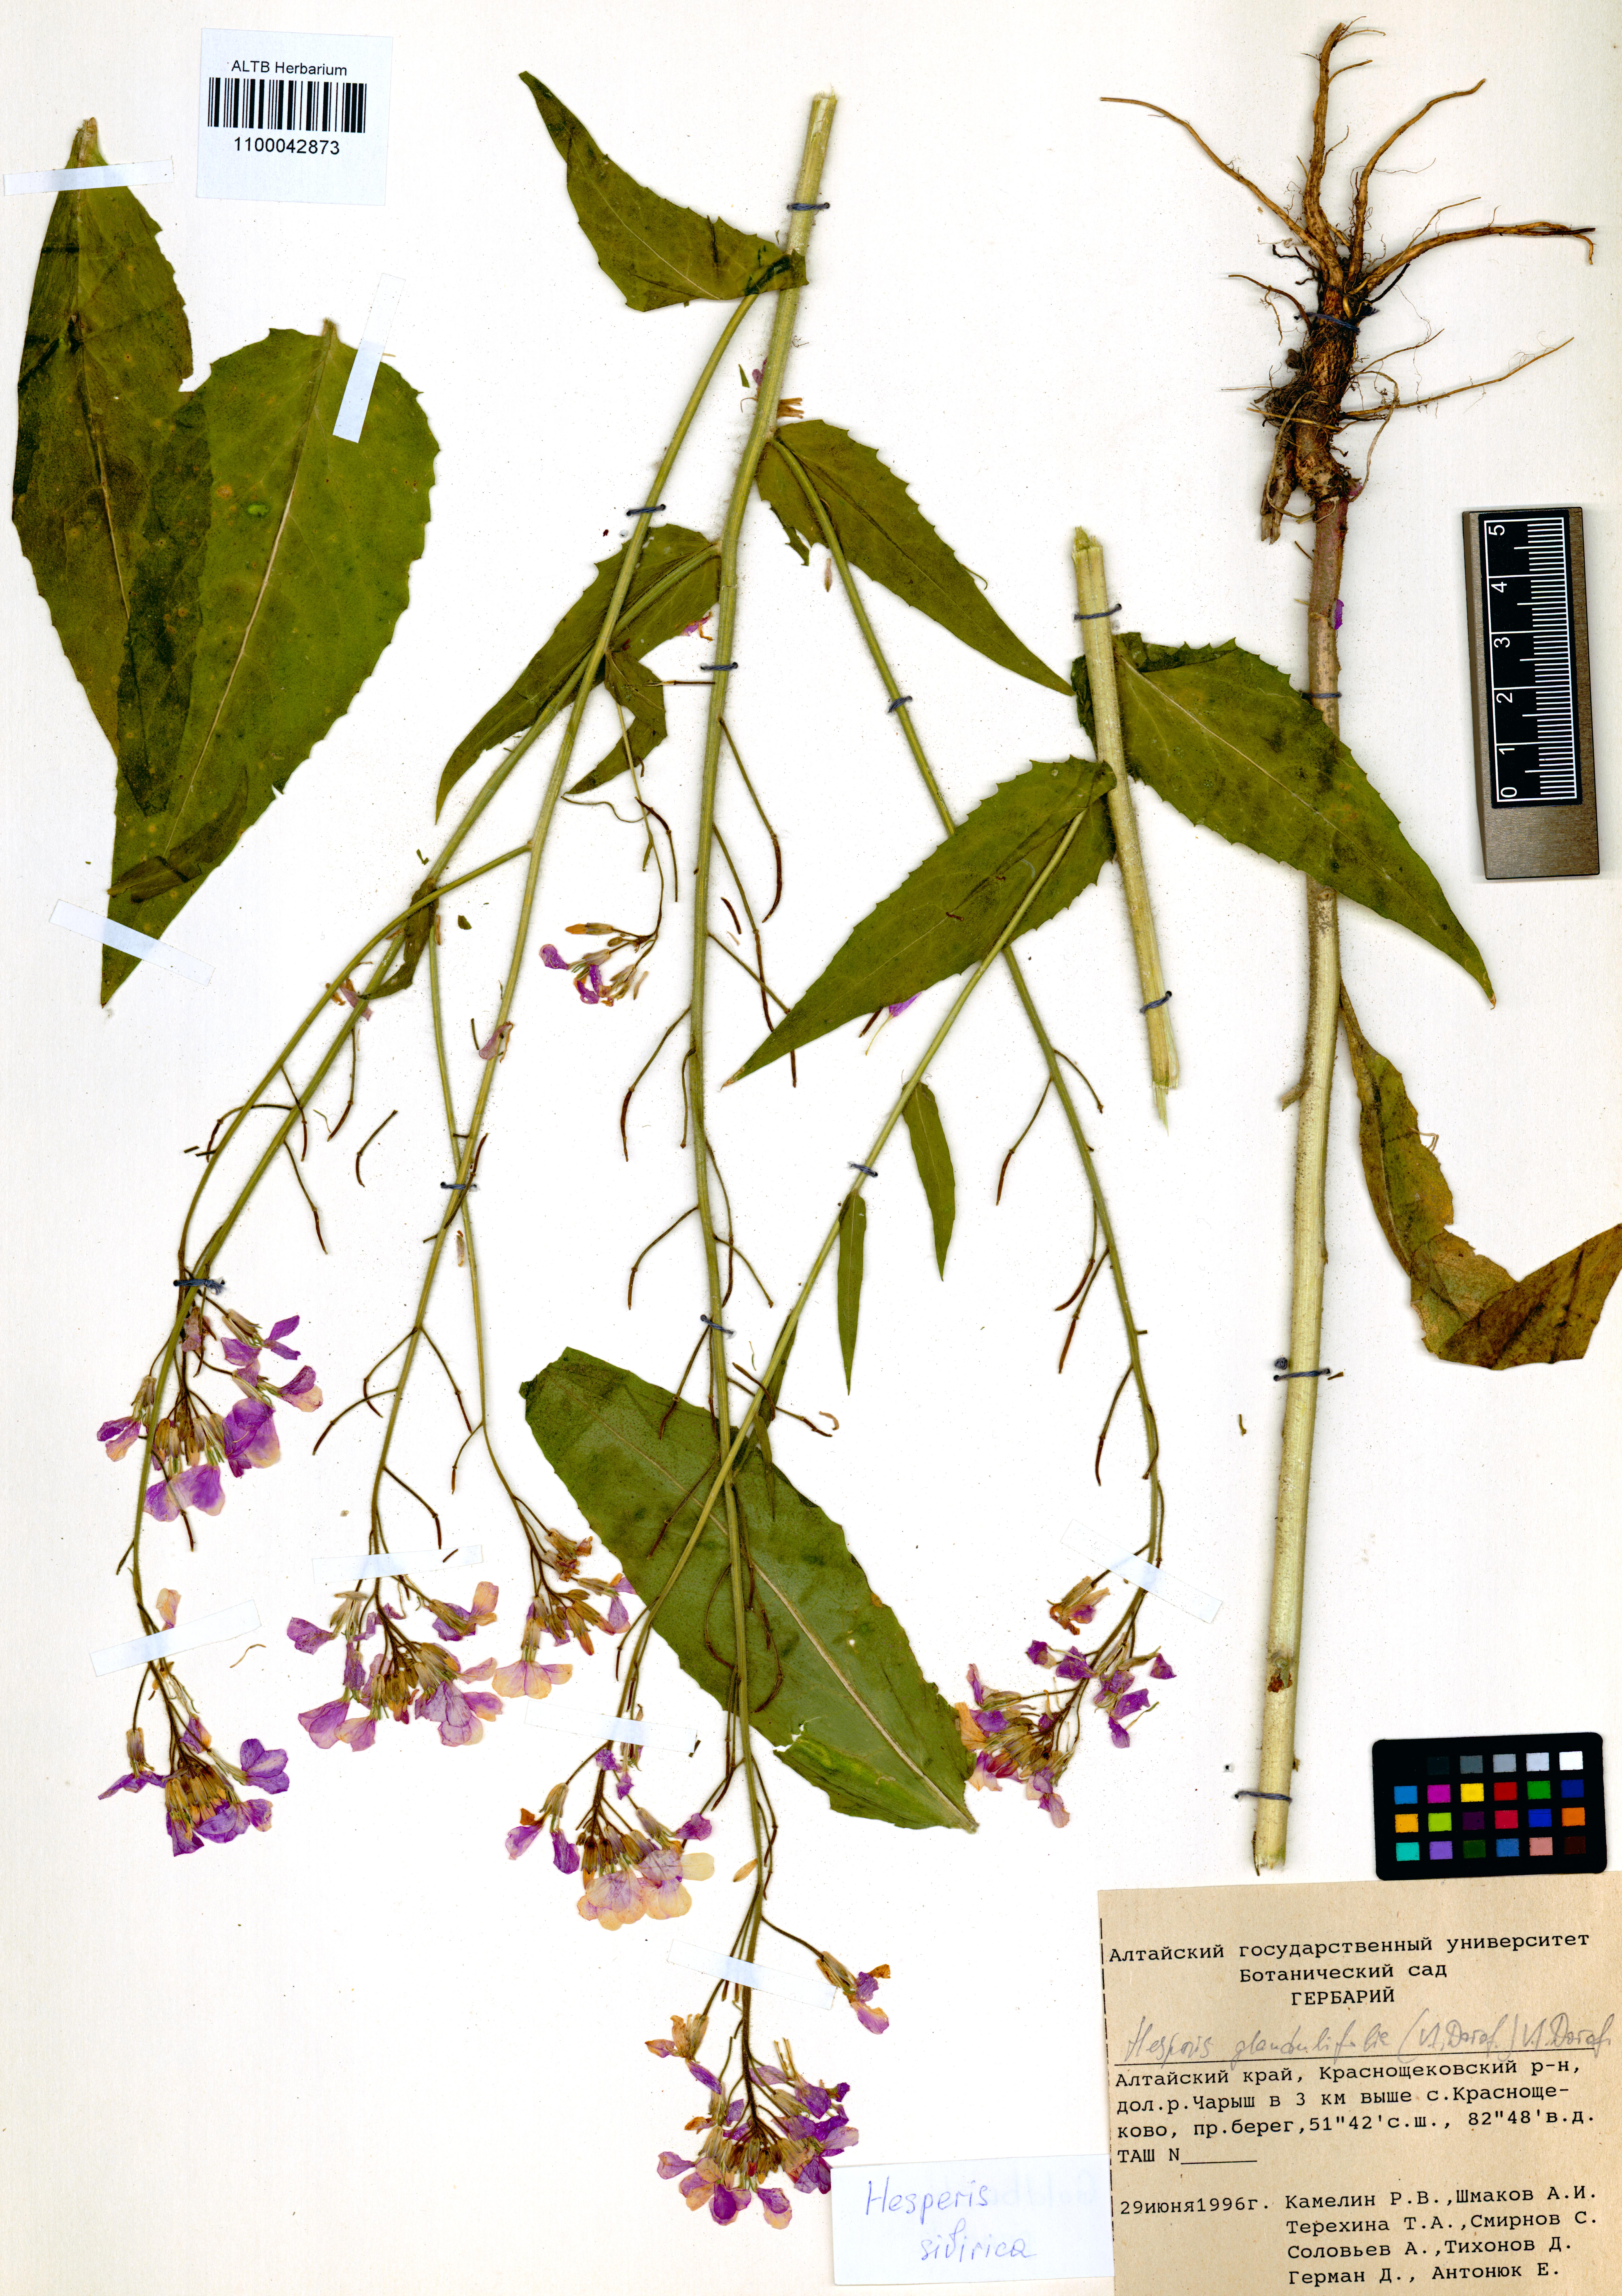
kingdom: Plantae
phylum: Tracheophyta
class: Magnoliopsida
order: Brassicales
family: Brassicaceae
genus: Hesperis
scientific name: Hesperis sibirica
